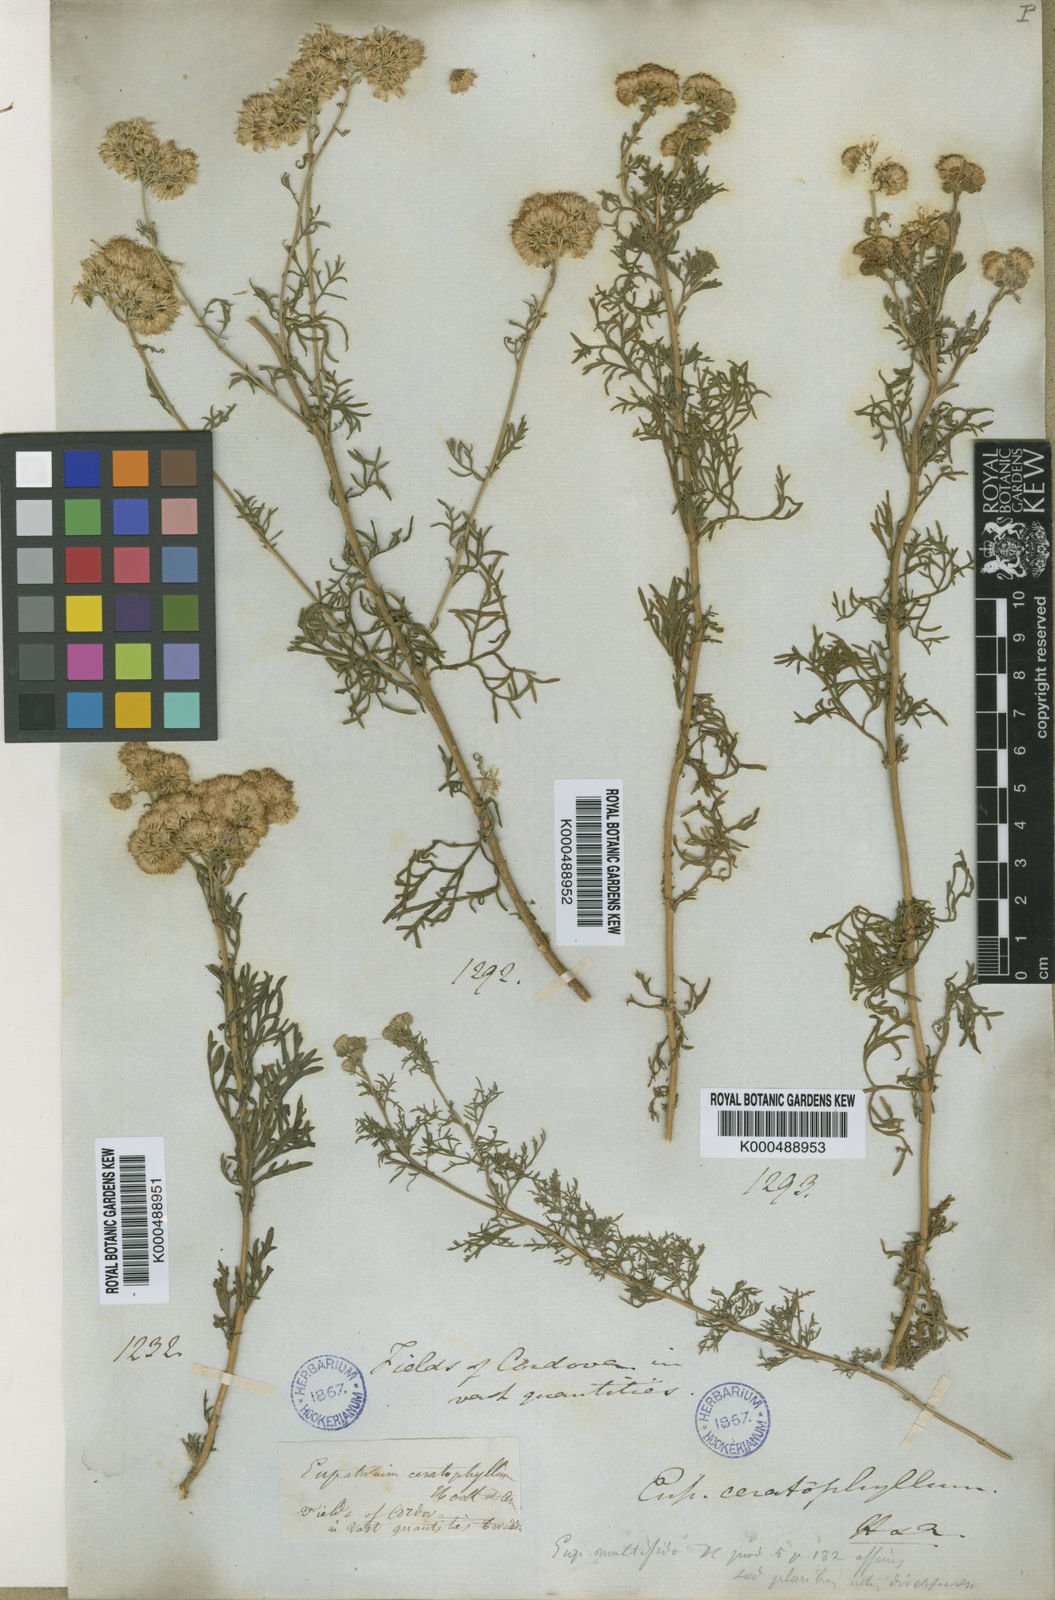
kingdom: Plantae
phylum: Tracheophyta
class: Magnoliopsida
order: Asterales
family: Asteraceae
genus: Gyptis
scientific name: Gyptis pinnatifida
